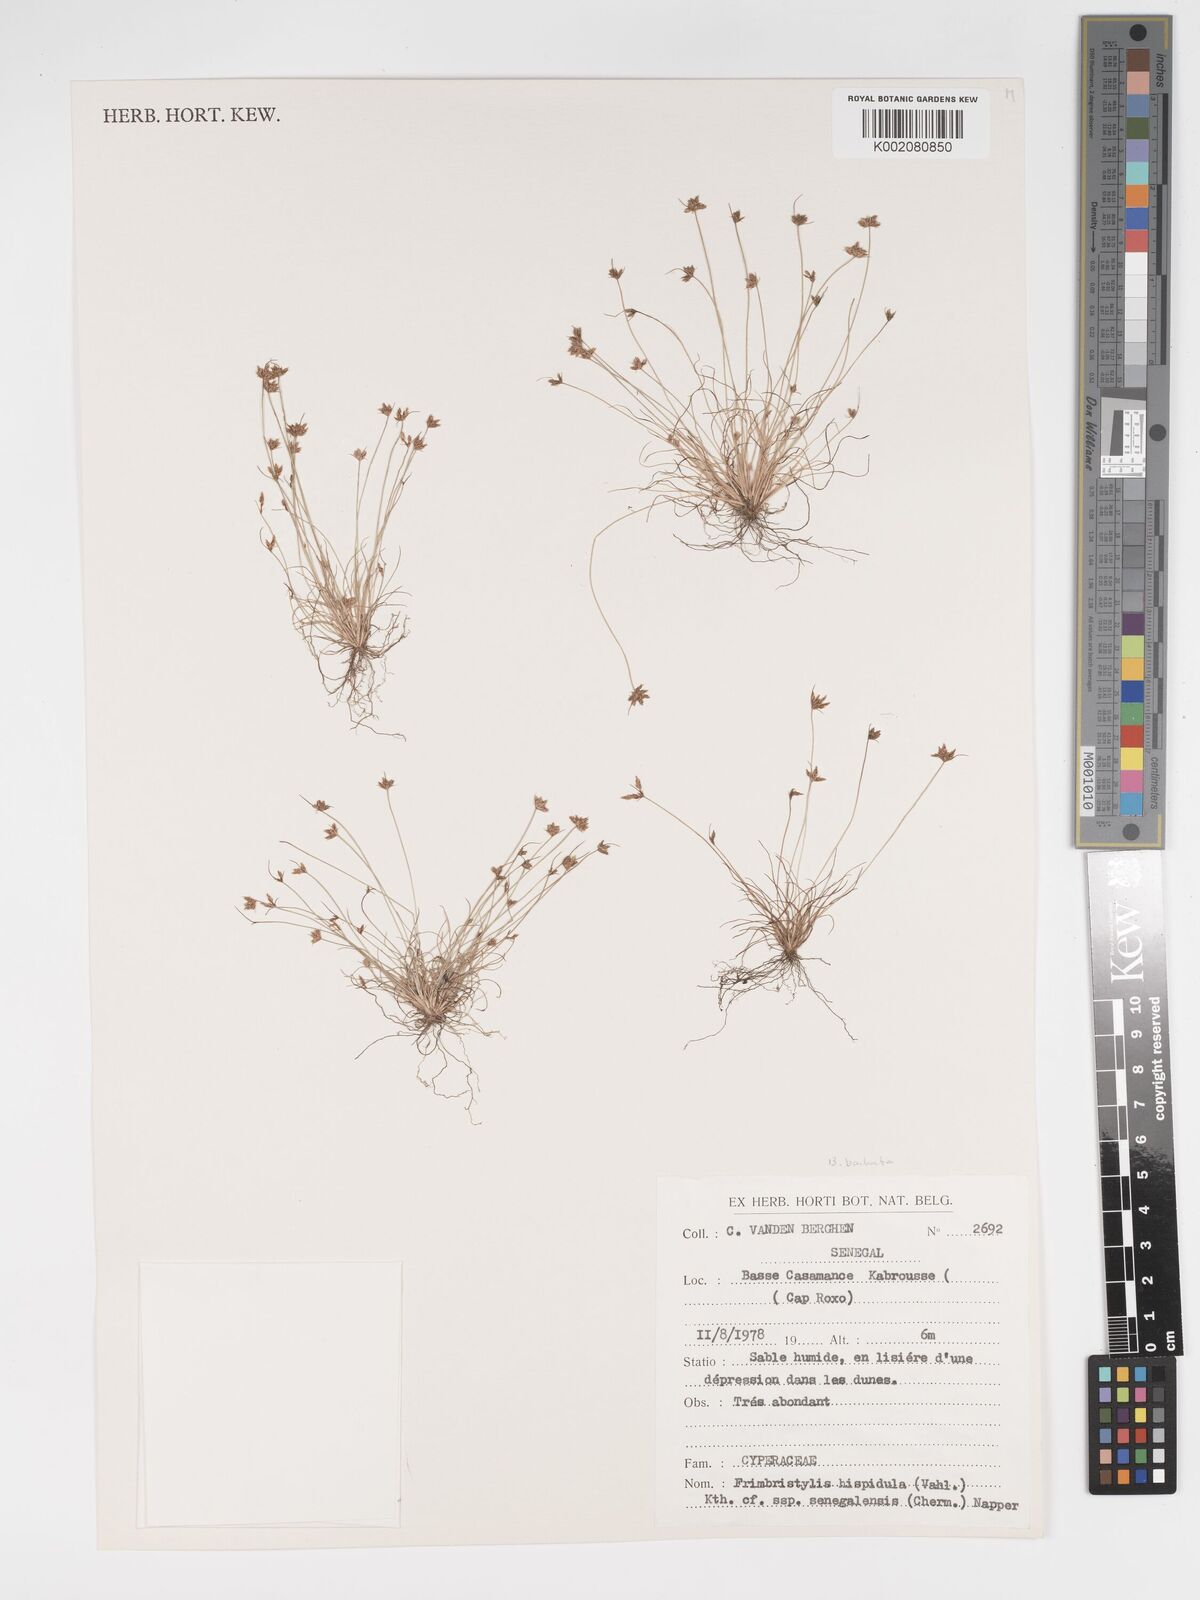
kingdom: Plantae
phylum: Tracheophyta
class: Liliopsida
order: Poales
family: Cyperaceae
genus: Bulbostylis
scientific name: Bulbostylis barbata
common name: Watergrass
